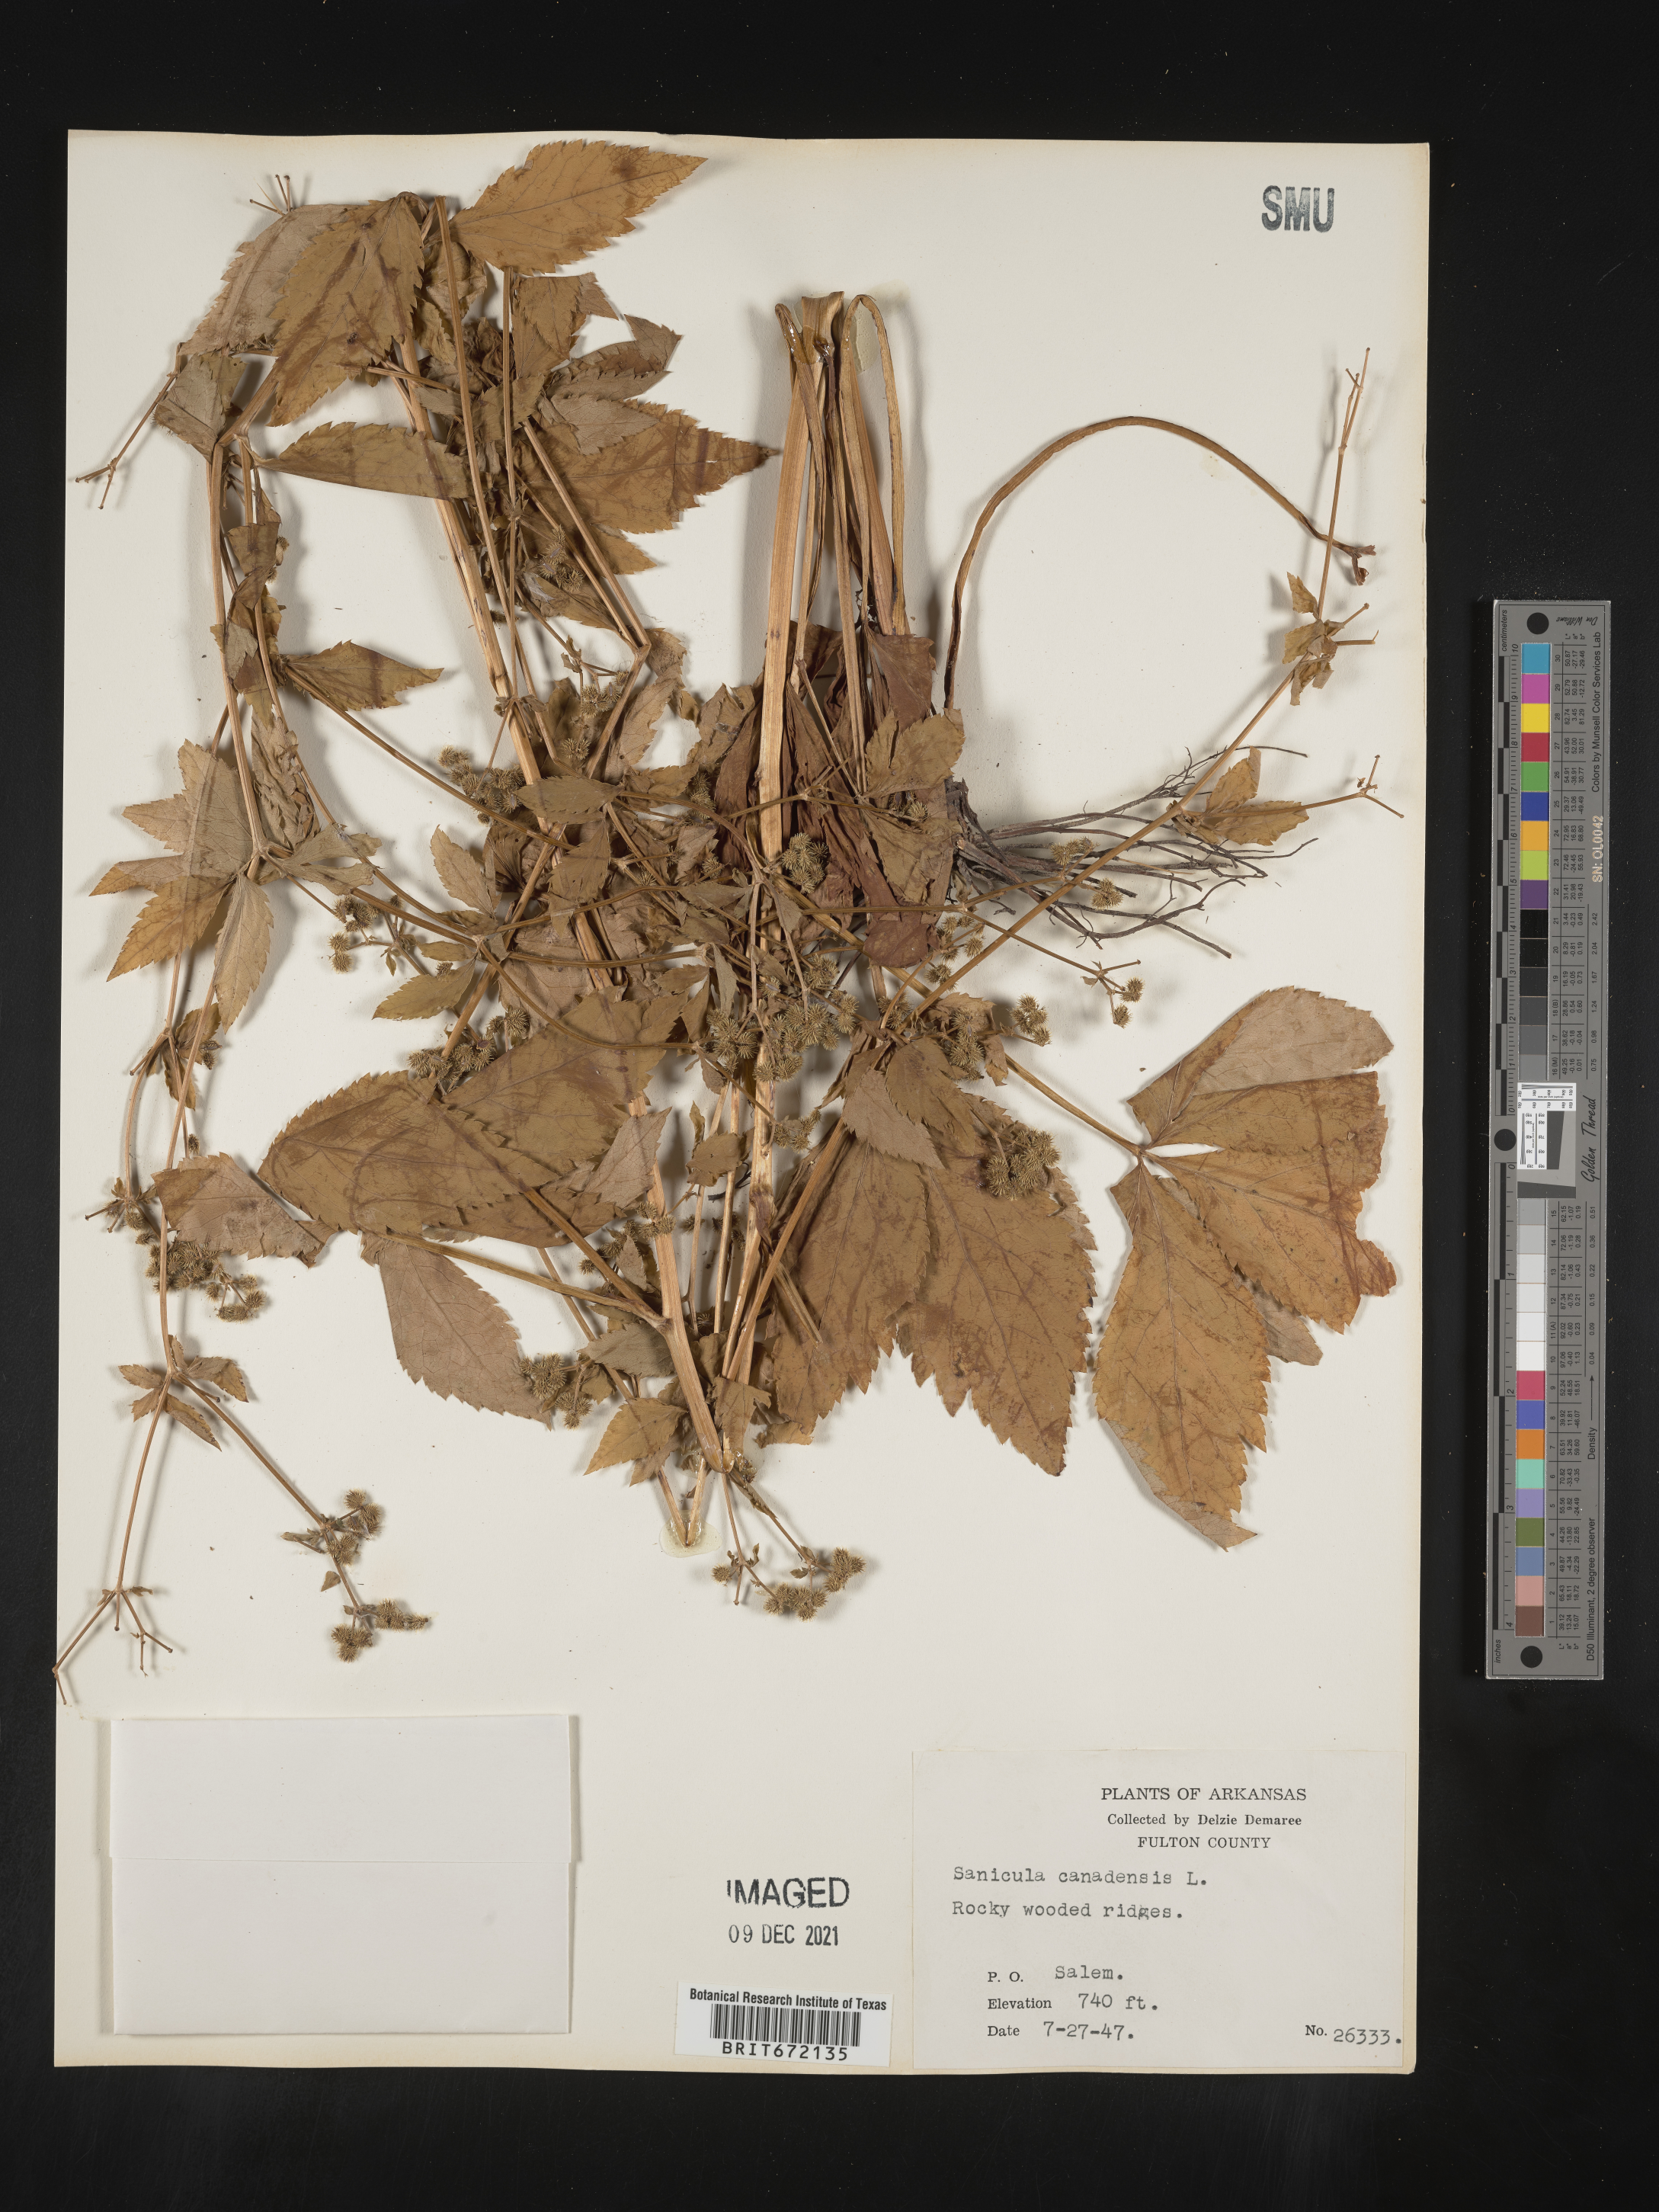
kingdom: Plantae
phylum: Tracheophyta
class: Magnoliopsida
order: Apiales
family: Apiaceae
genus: Sanicula
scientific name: Sanicula canadensis
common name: Canada sanicle
